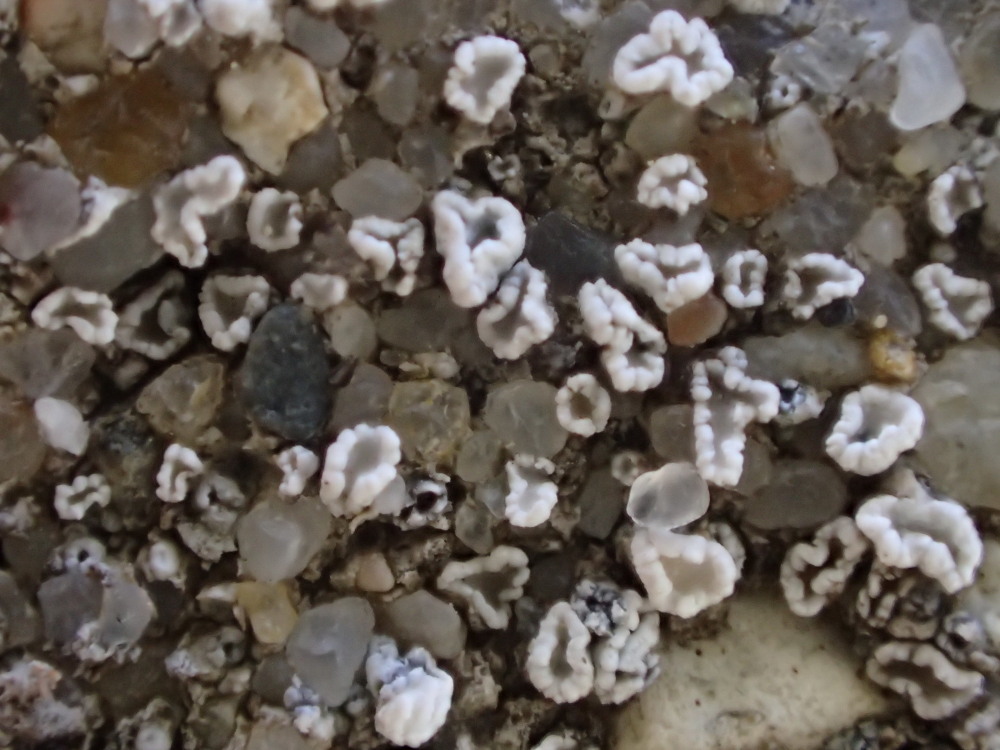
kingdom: Fungi
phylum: Ascomycota
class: Lecanoromycetes
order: Lecanorales
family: Lecanoraceae
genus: Myriolecis
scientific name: Myriolecis crenulata
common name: beton-kantskivelav
